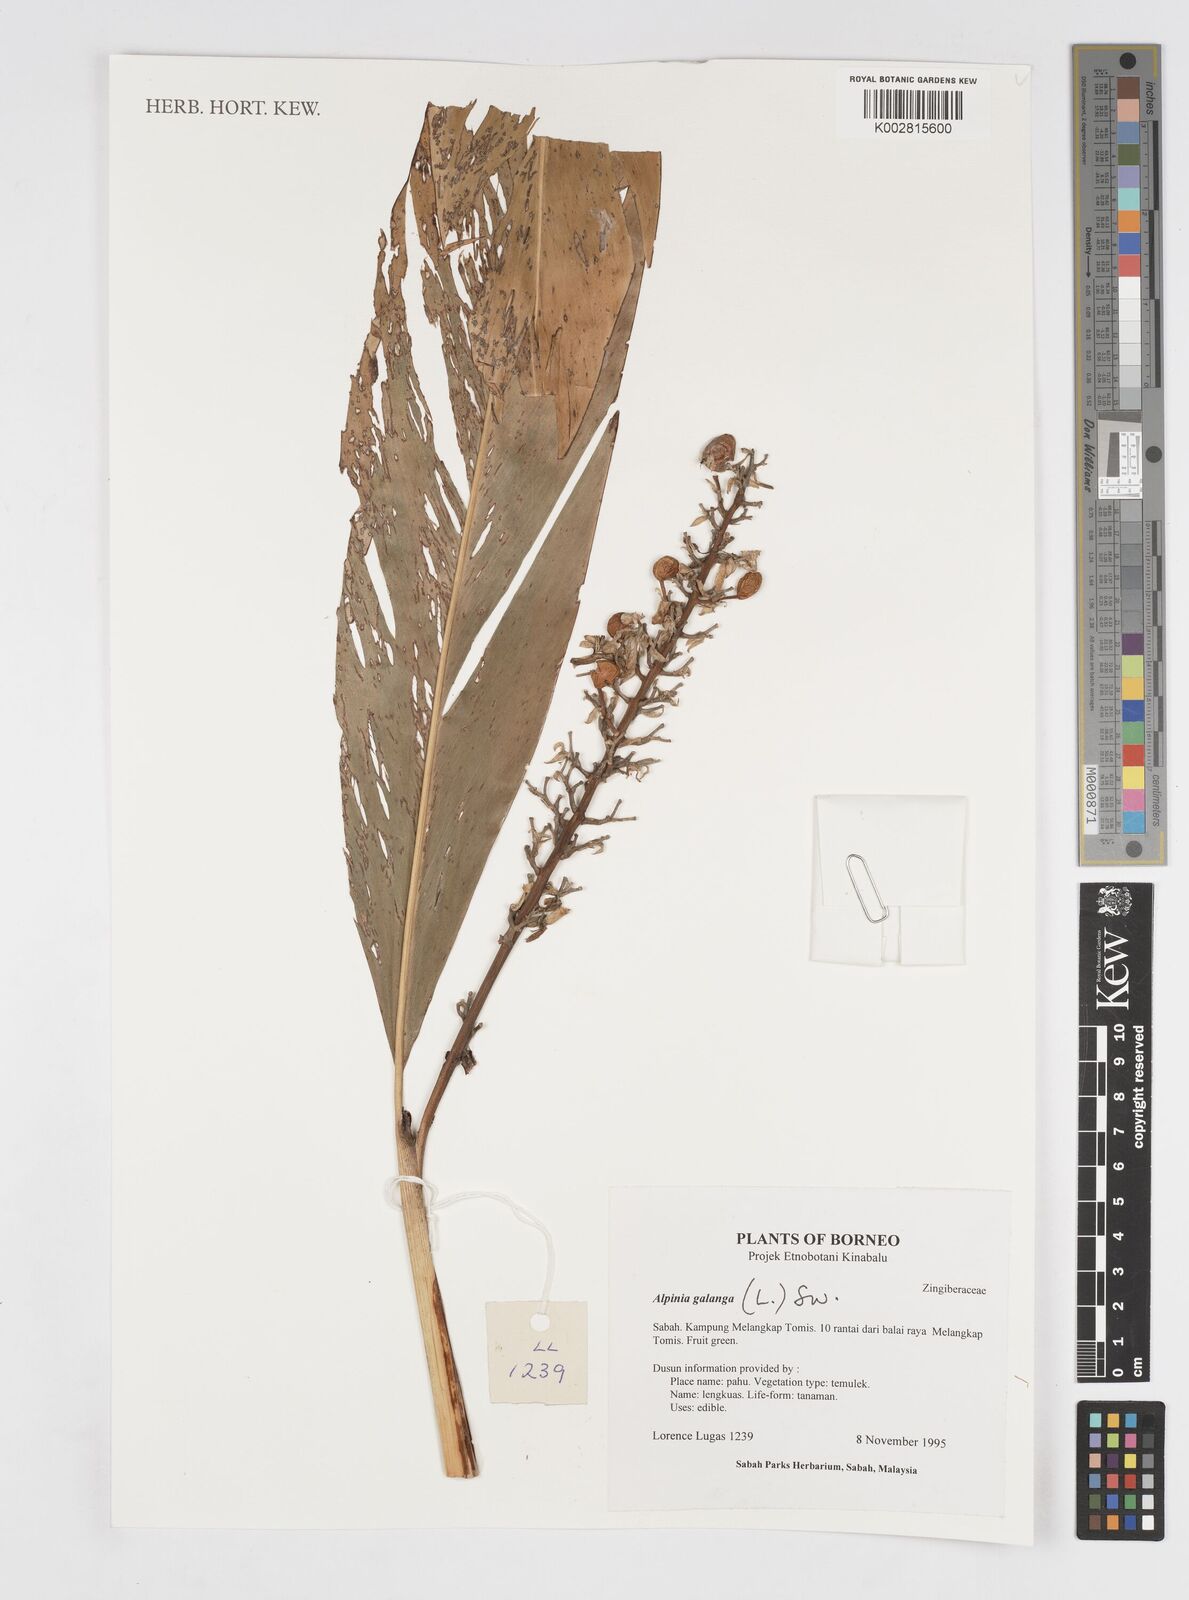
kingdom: Plantae
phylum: Tracheophyta
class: Liliopsida
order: Zingiberales
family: Zingiberaceae
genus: Alpinia
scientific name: Alpinia galanga
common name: Siamese-ginger
